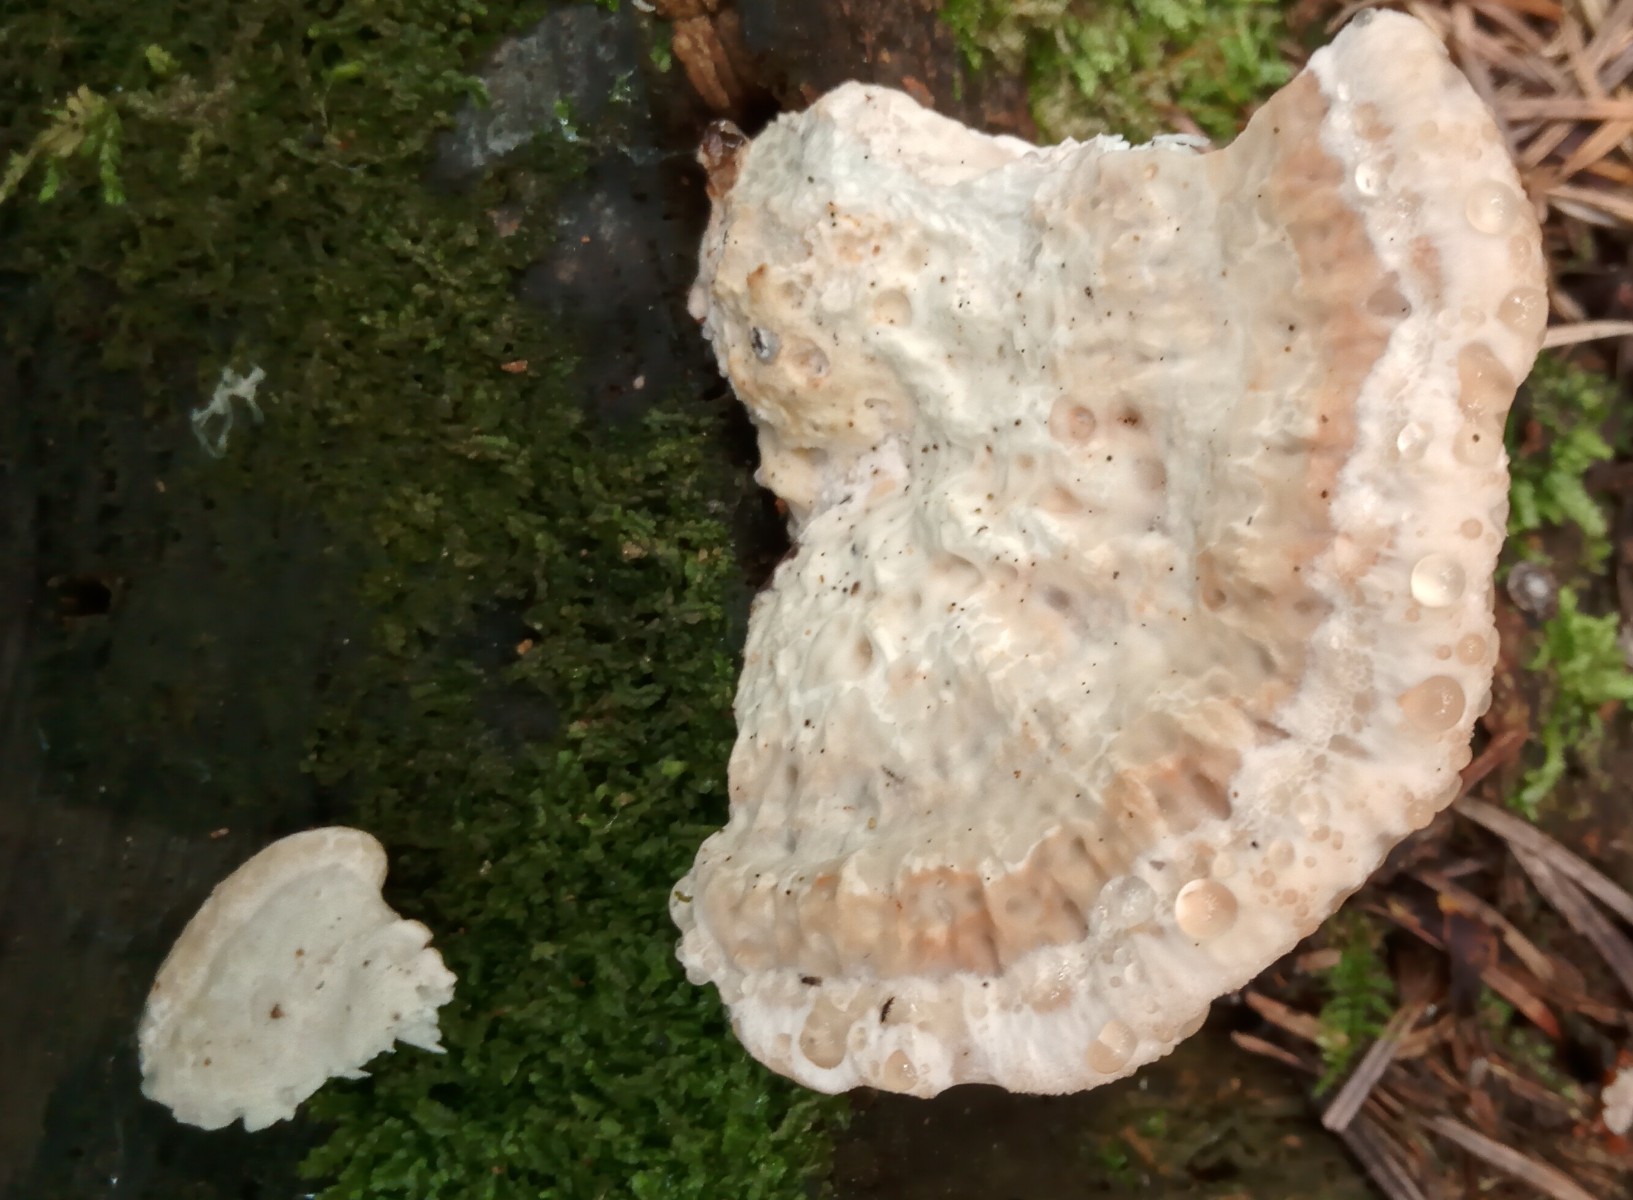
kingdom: Fungi
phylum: Basidiomycota
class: Agaricomycetes
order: Polyporales
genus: Calcipostia
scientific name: Calcipostia guttulata
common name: dråbe-kødporesvamp
